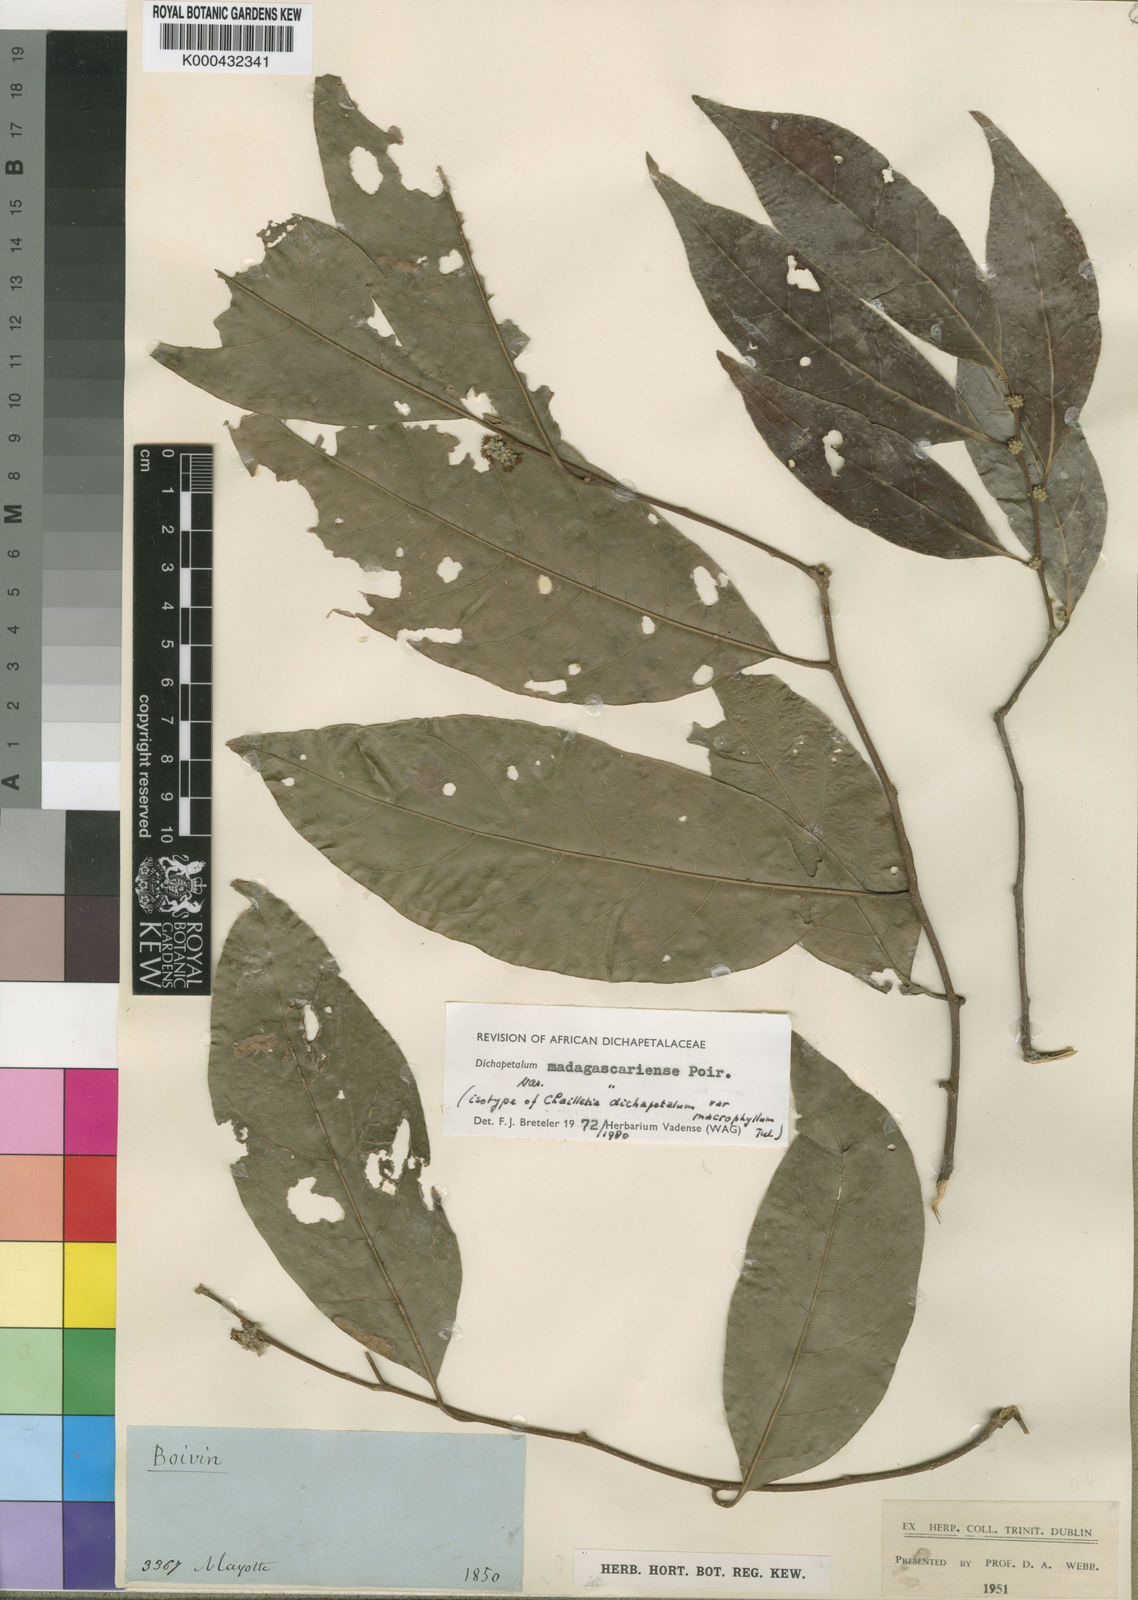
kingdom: Plantae
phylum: Tracheophyta
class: Magnoliopsida
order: Malpighiales
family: Dichapetalaceae
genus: Dichapetalum
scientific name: Dichapetalum madagascariense
